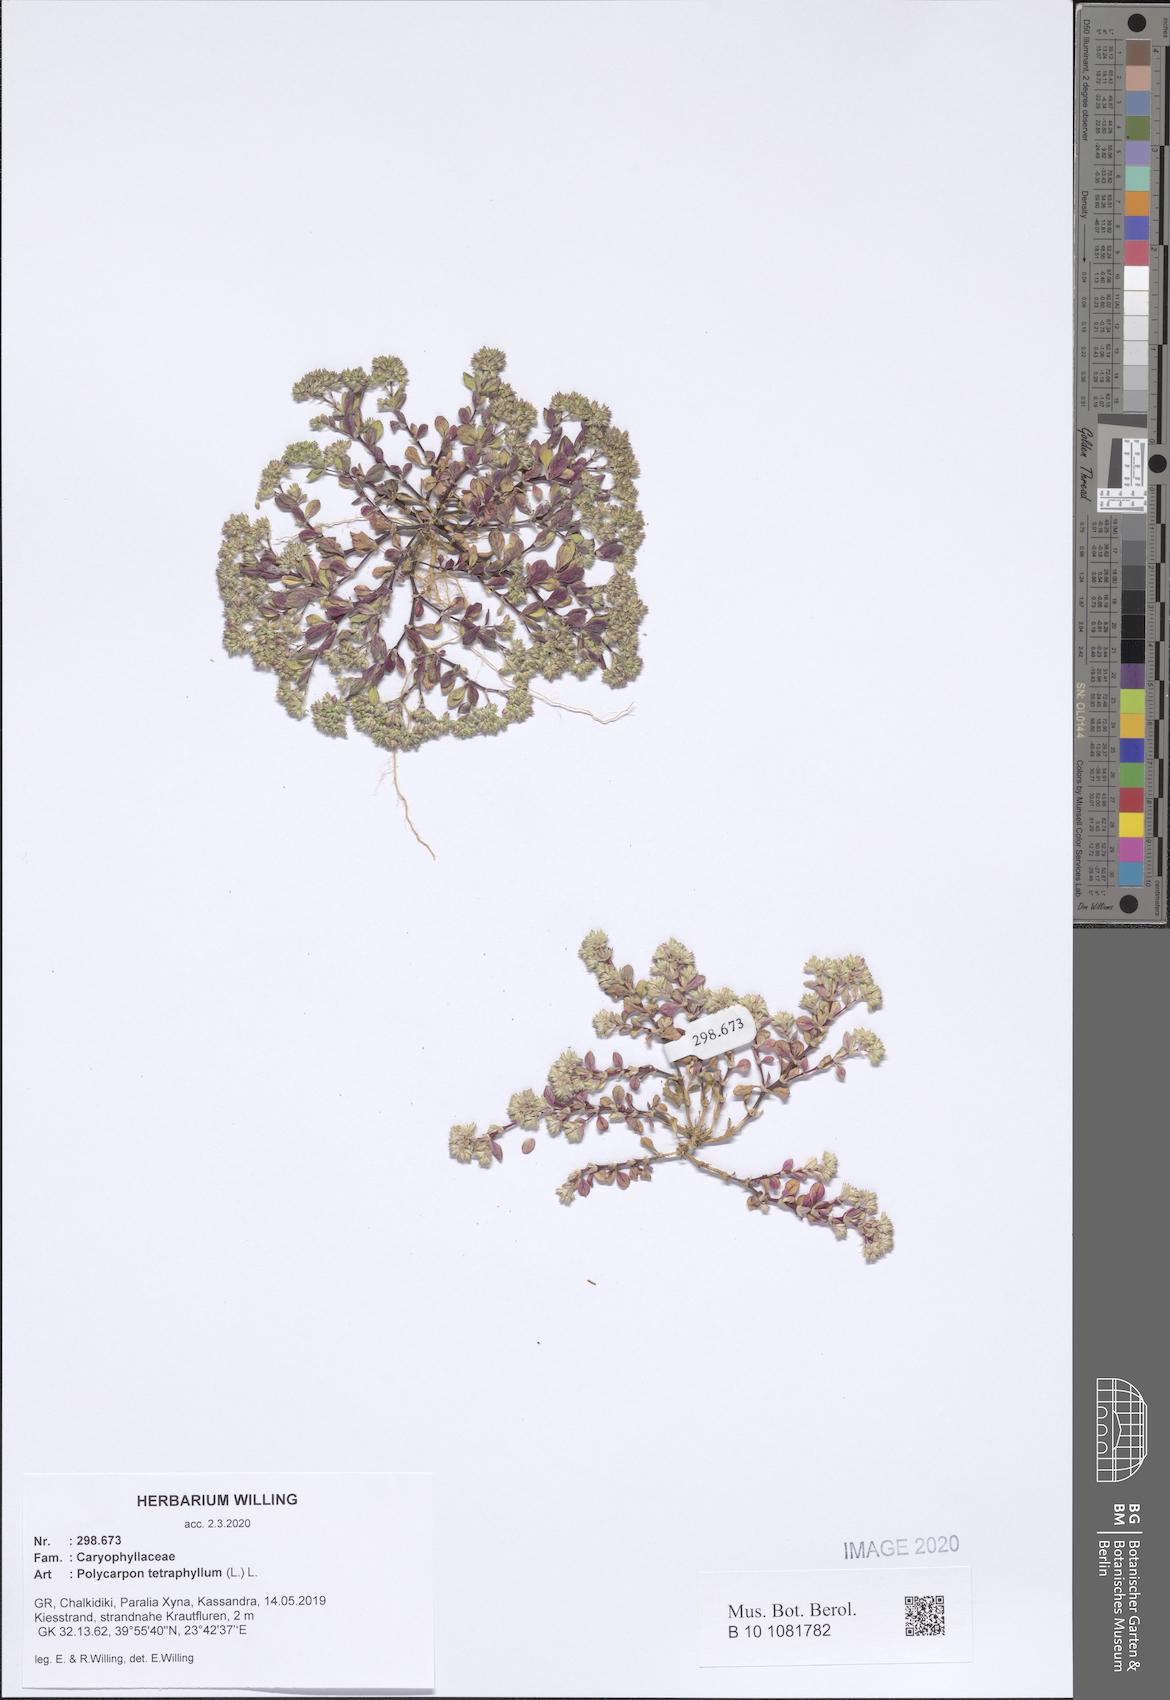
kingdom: Plantae
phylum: Tracheophyta
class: Magnoliopsida
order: Caryophyllales
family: Caryophyllaceae
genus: Polycarpon
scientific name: Polycarpon tetraphyllum
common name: Four-leaved all-seed
